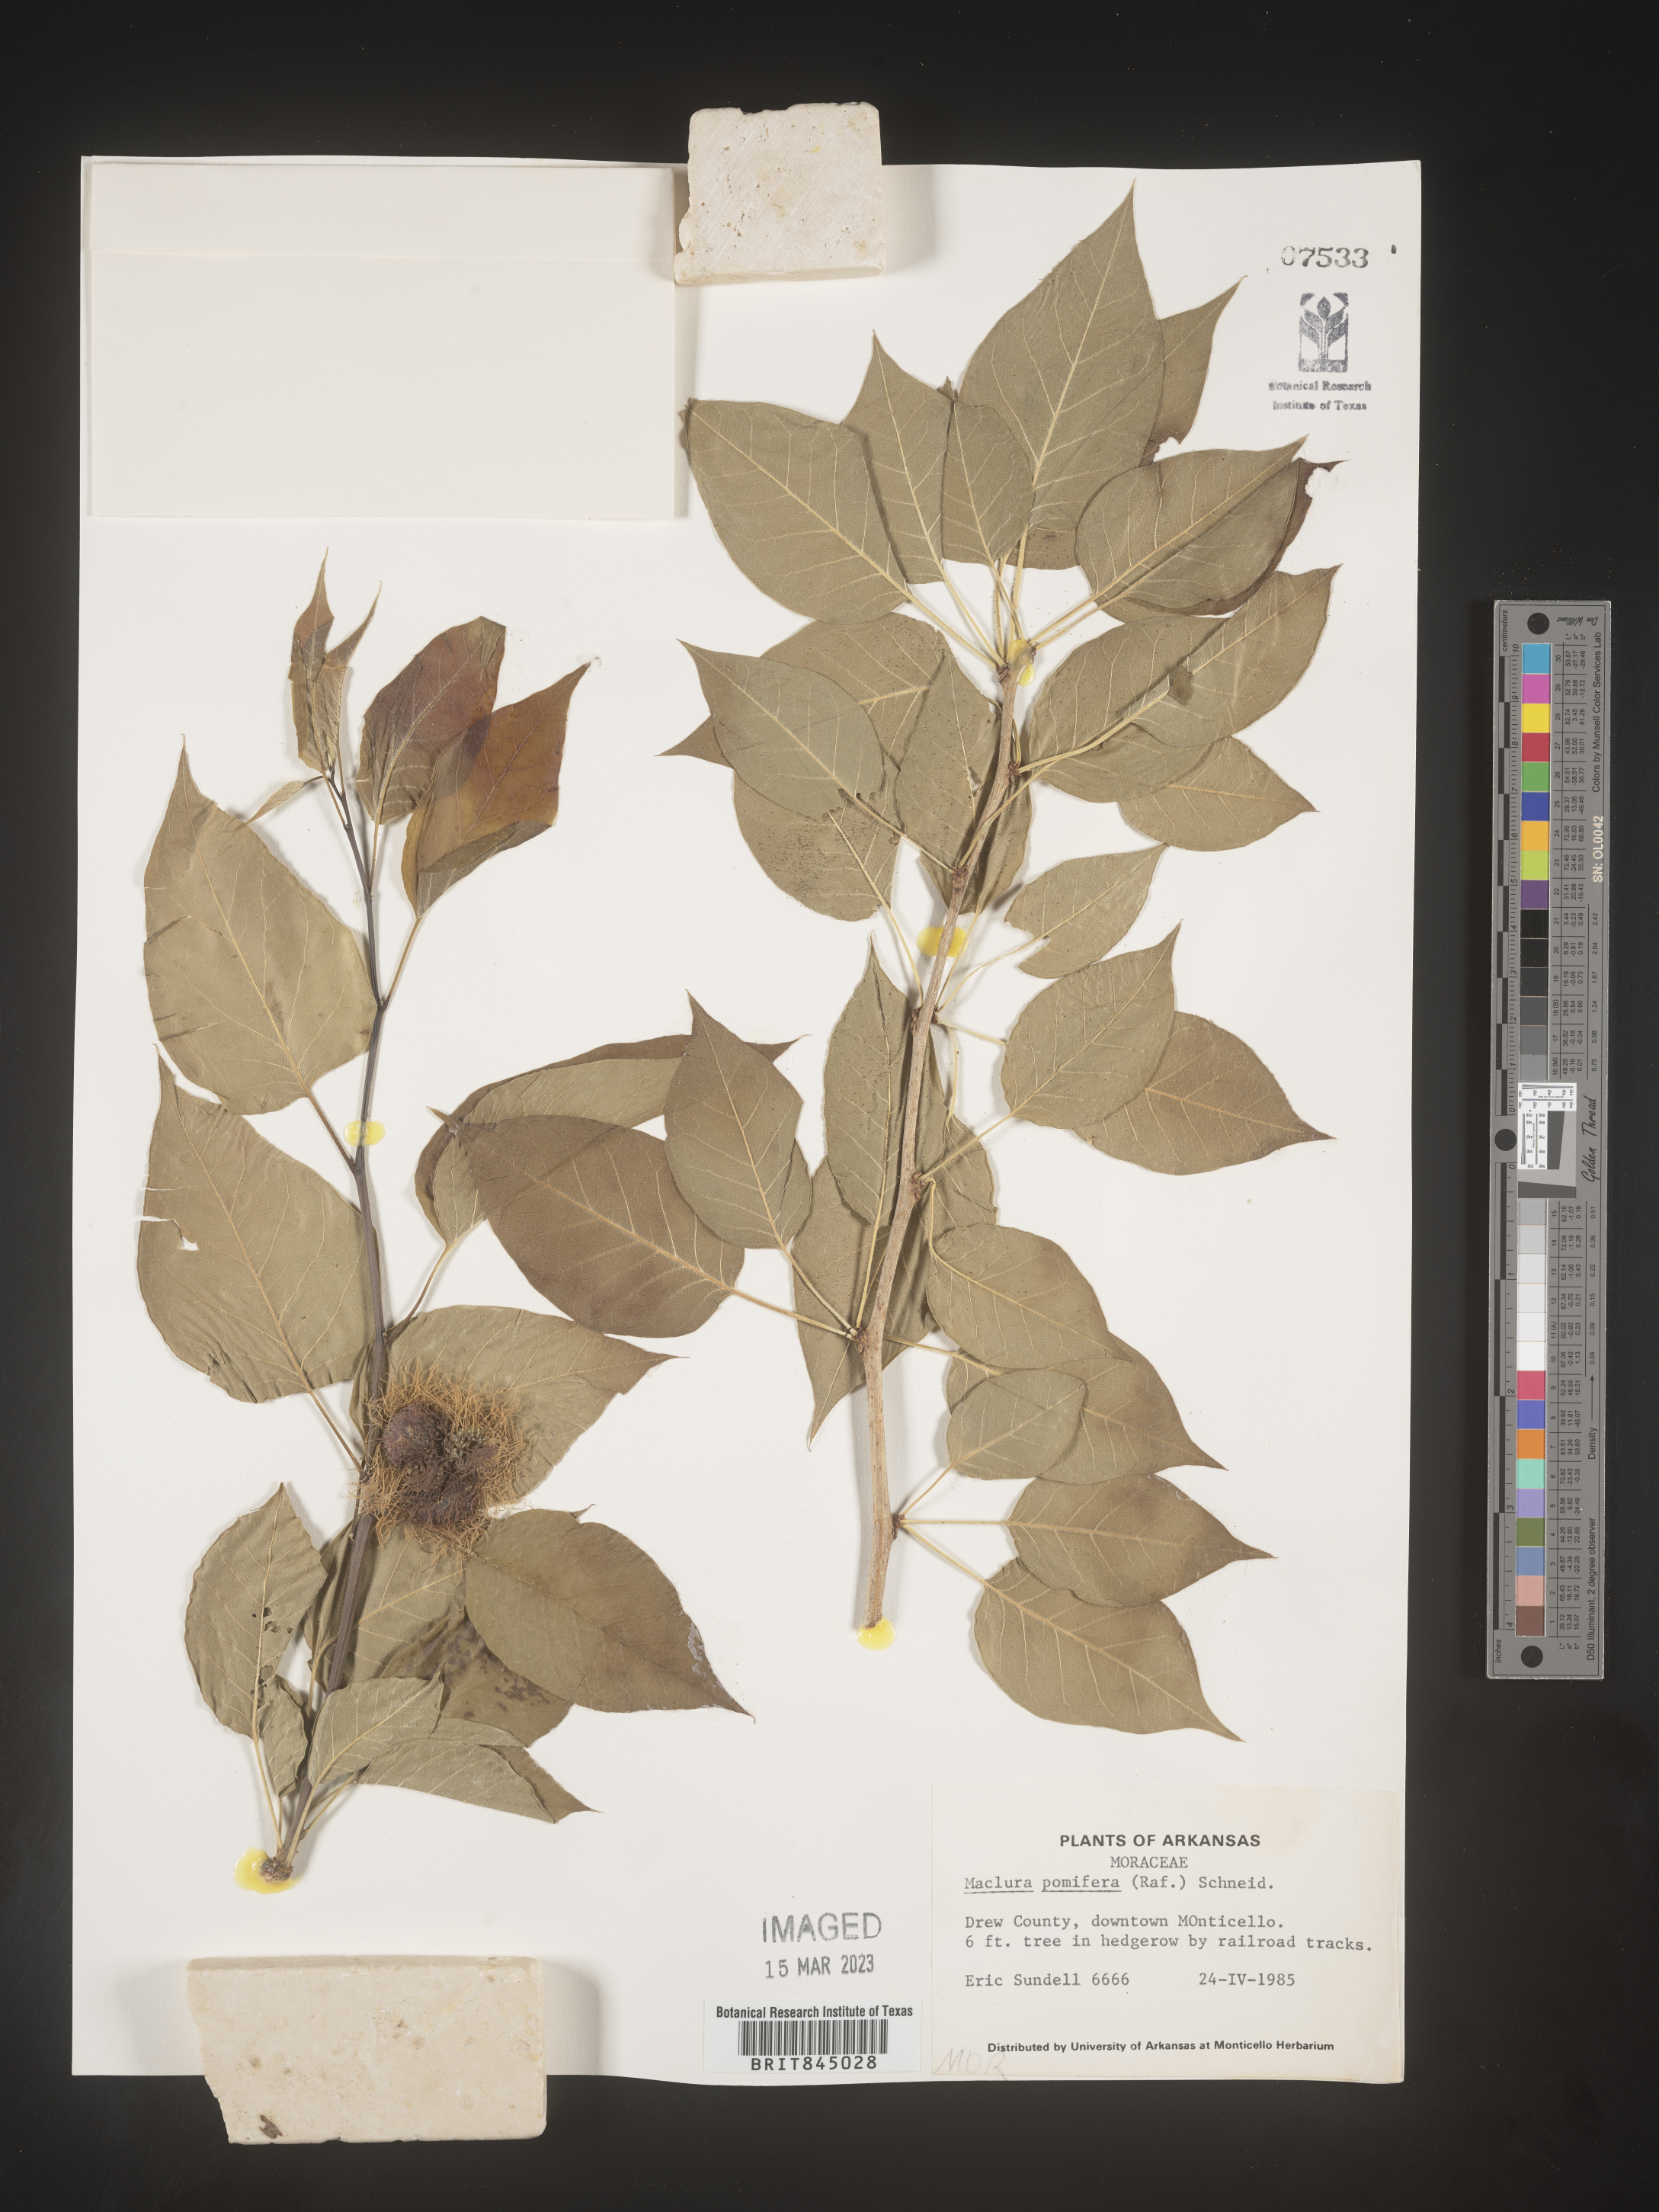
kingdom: Plantae
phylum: Tracheophyta
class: Magnoliopsida
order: Rosales
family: Moraceae
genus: Maclura
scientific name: Maclura pomifera
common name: Osage-orange
